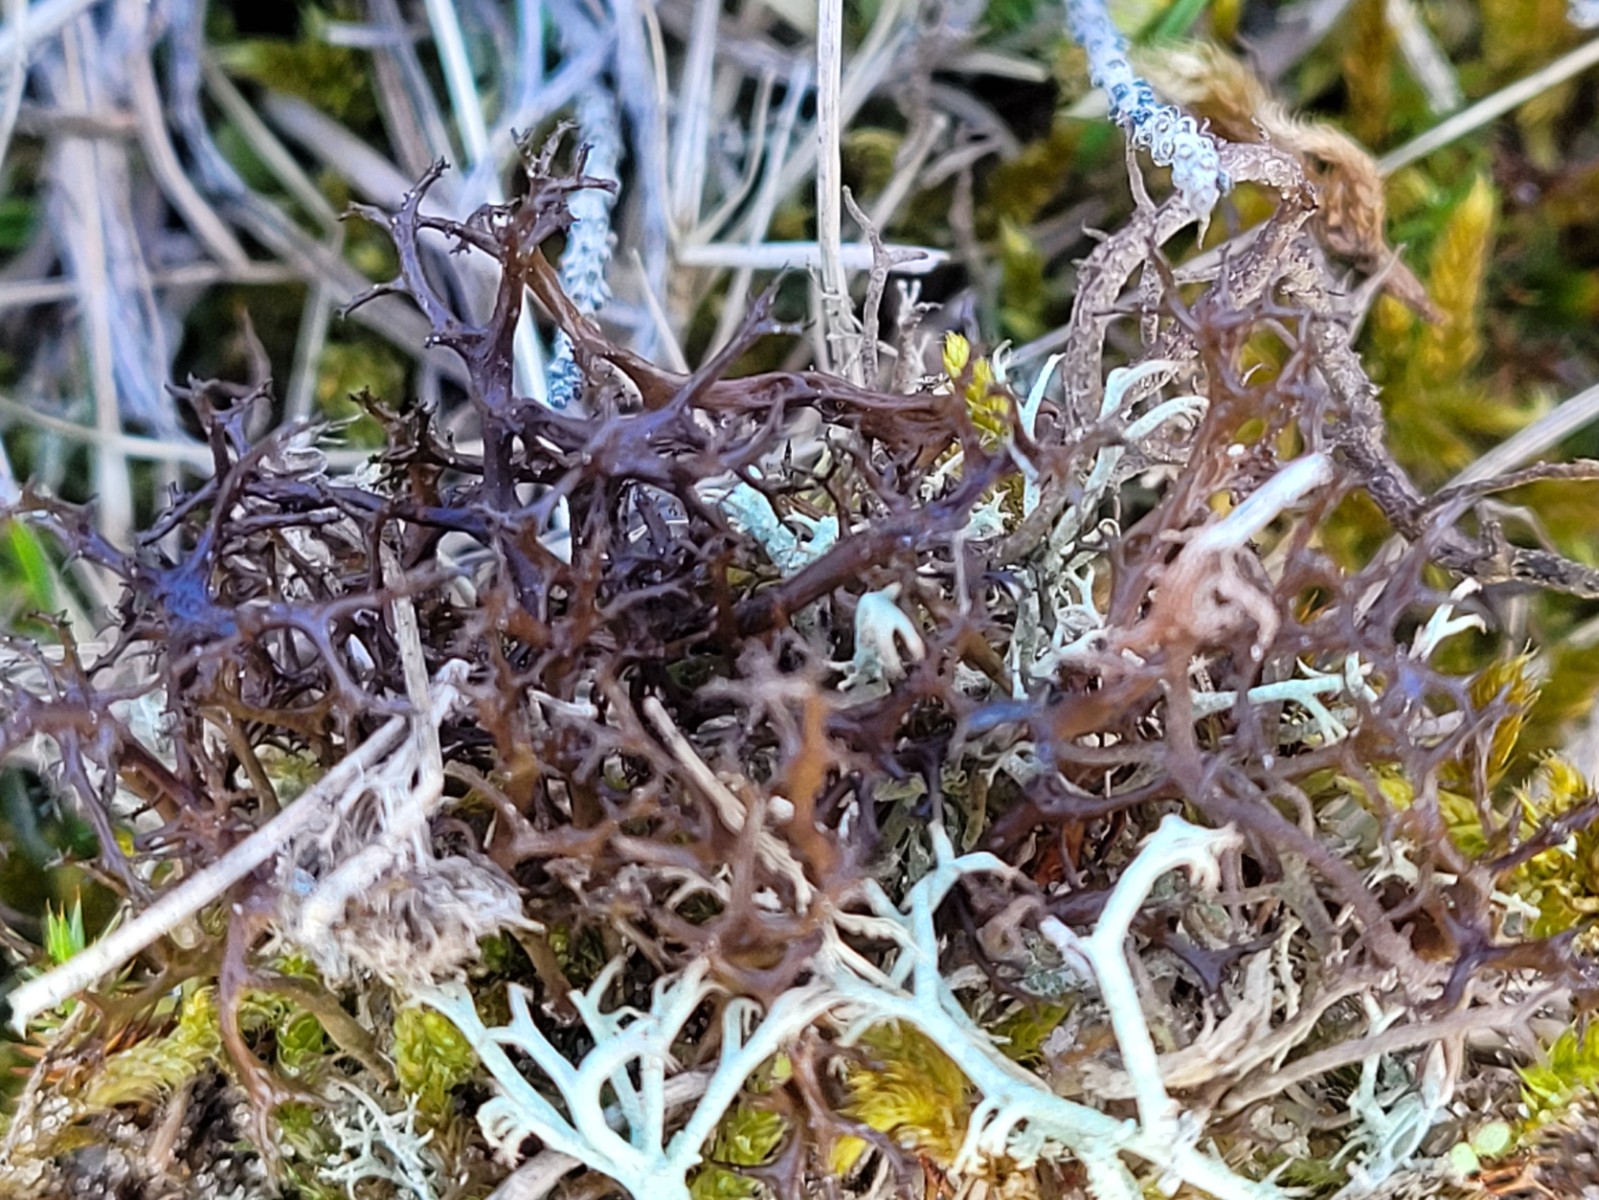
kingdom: Fungi
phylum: Ascomycota
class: Lecanoromycetes
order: Lecanorales
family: Parmeliaceae
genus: Cetraria
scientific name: Cetraria aculeata
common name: grubet tjørnelav
